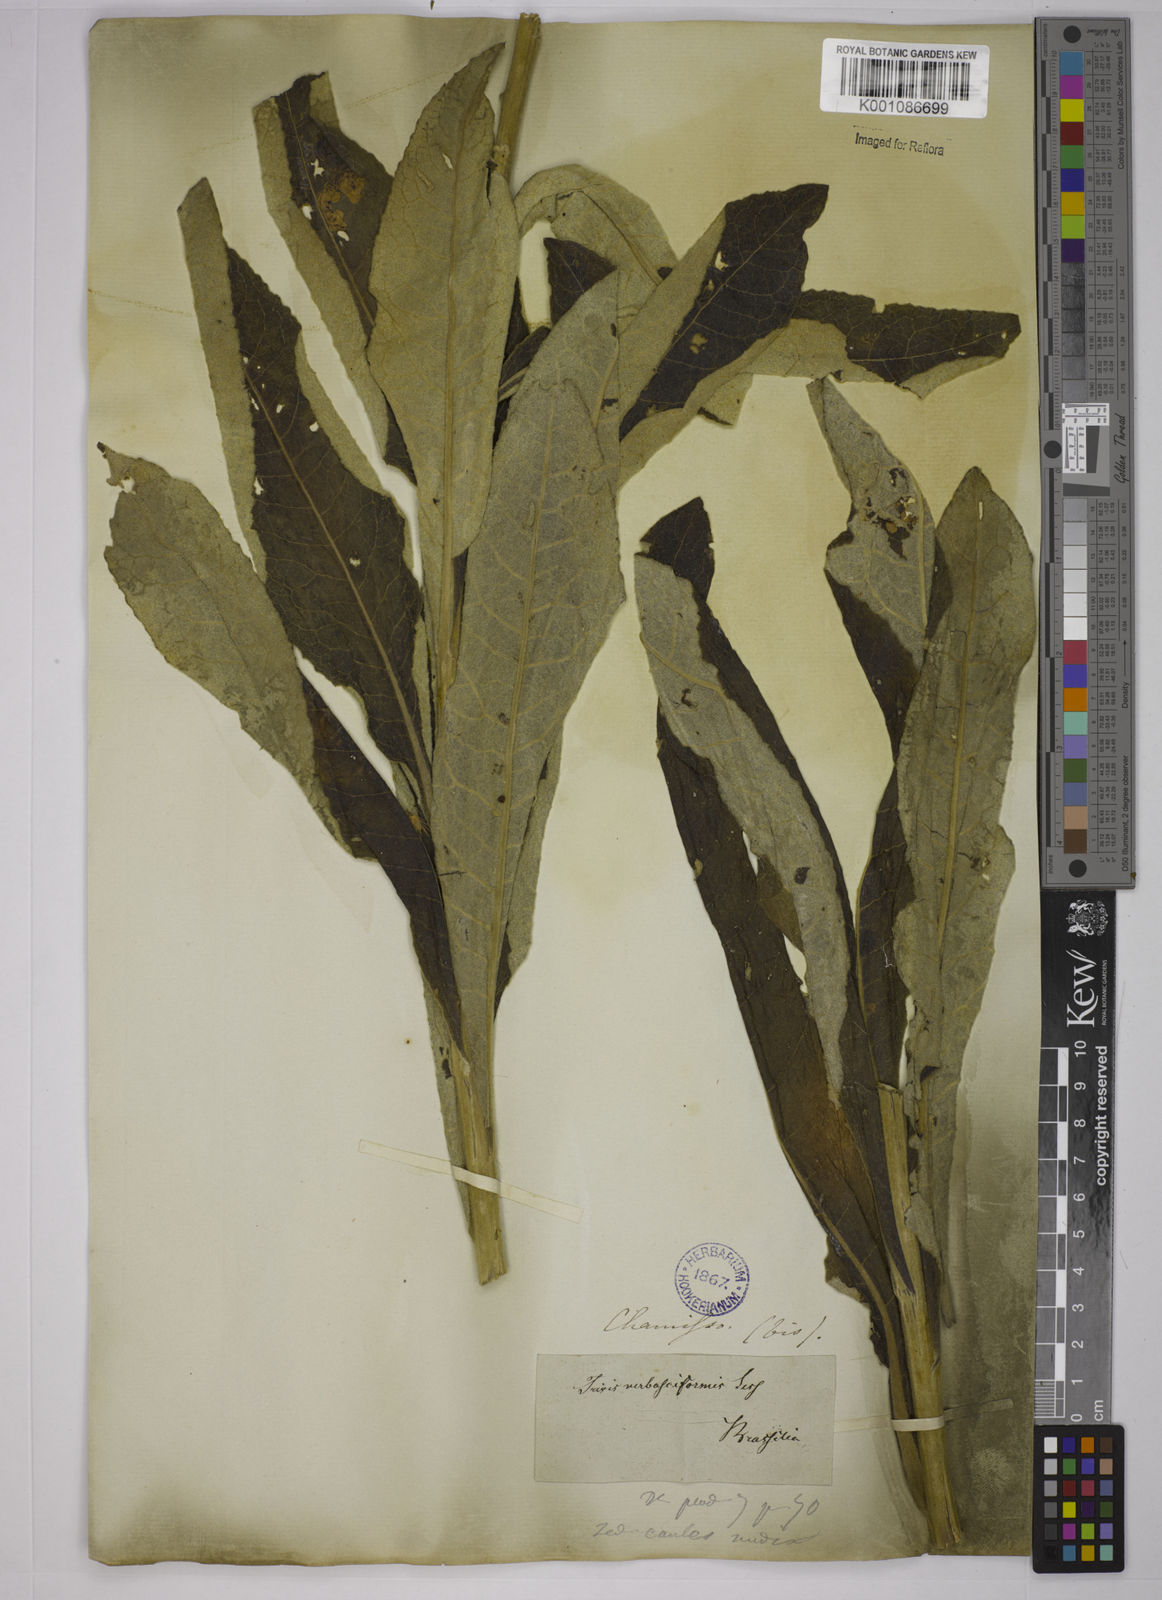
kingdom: Plantae
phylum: Tracheophyta
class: Magnoliopsida
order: Asterales
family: Asteraceae
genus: Trixis
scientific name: Trixis nobilis
